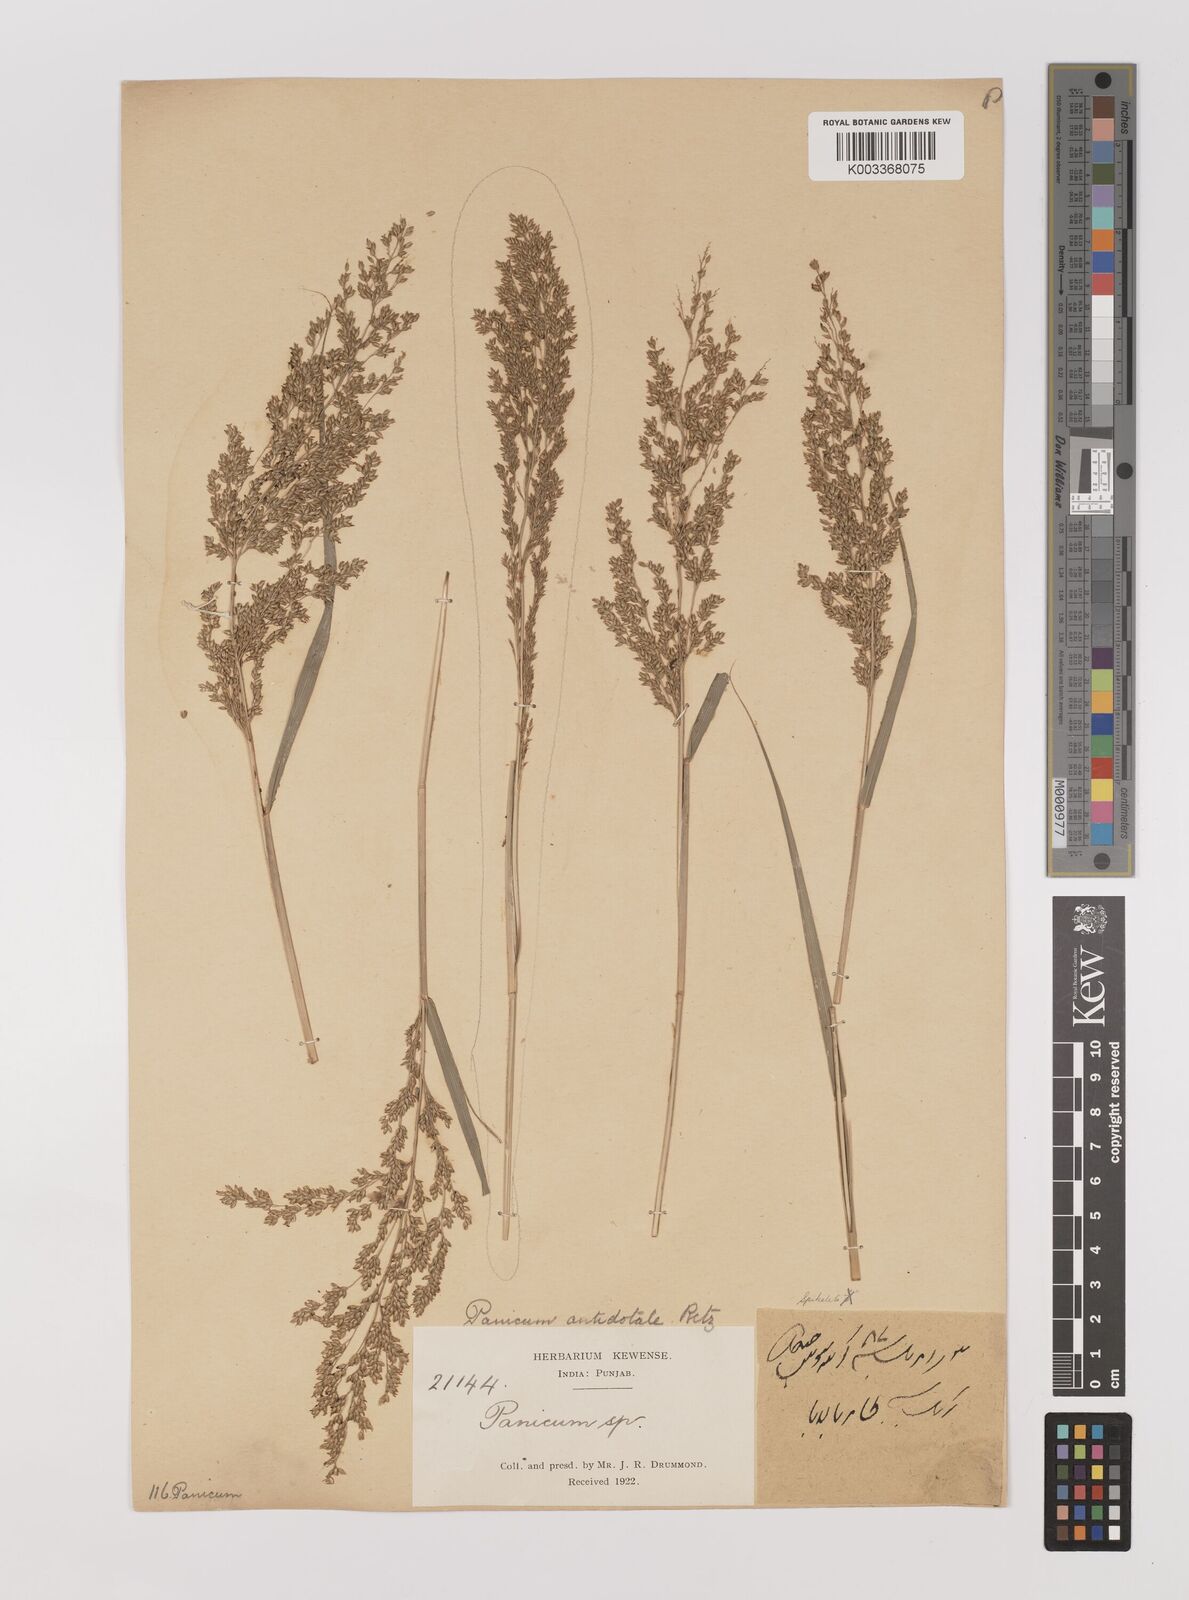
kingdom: Plantae
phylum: Tracheophyta
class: Liliopsida
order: Poales
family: Poaceae
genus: Panicum
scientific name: Panicum antidotale
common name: Blue panicum
